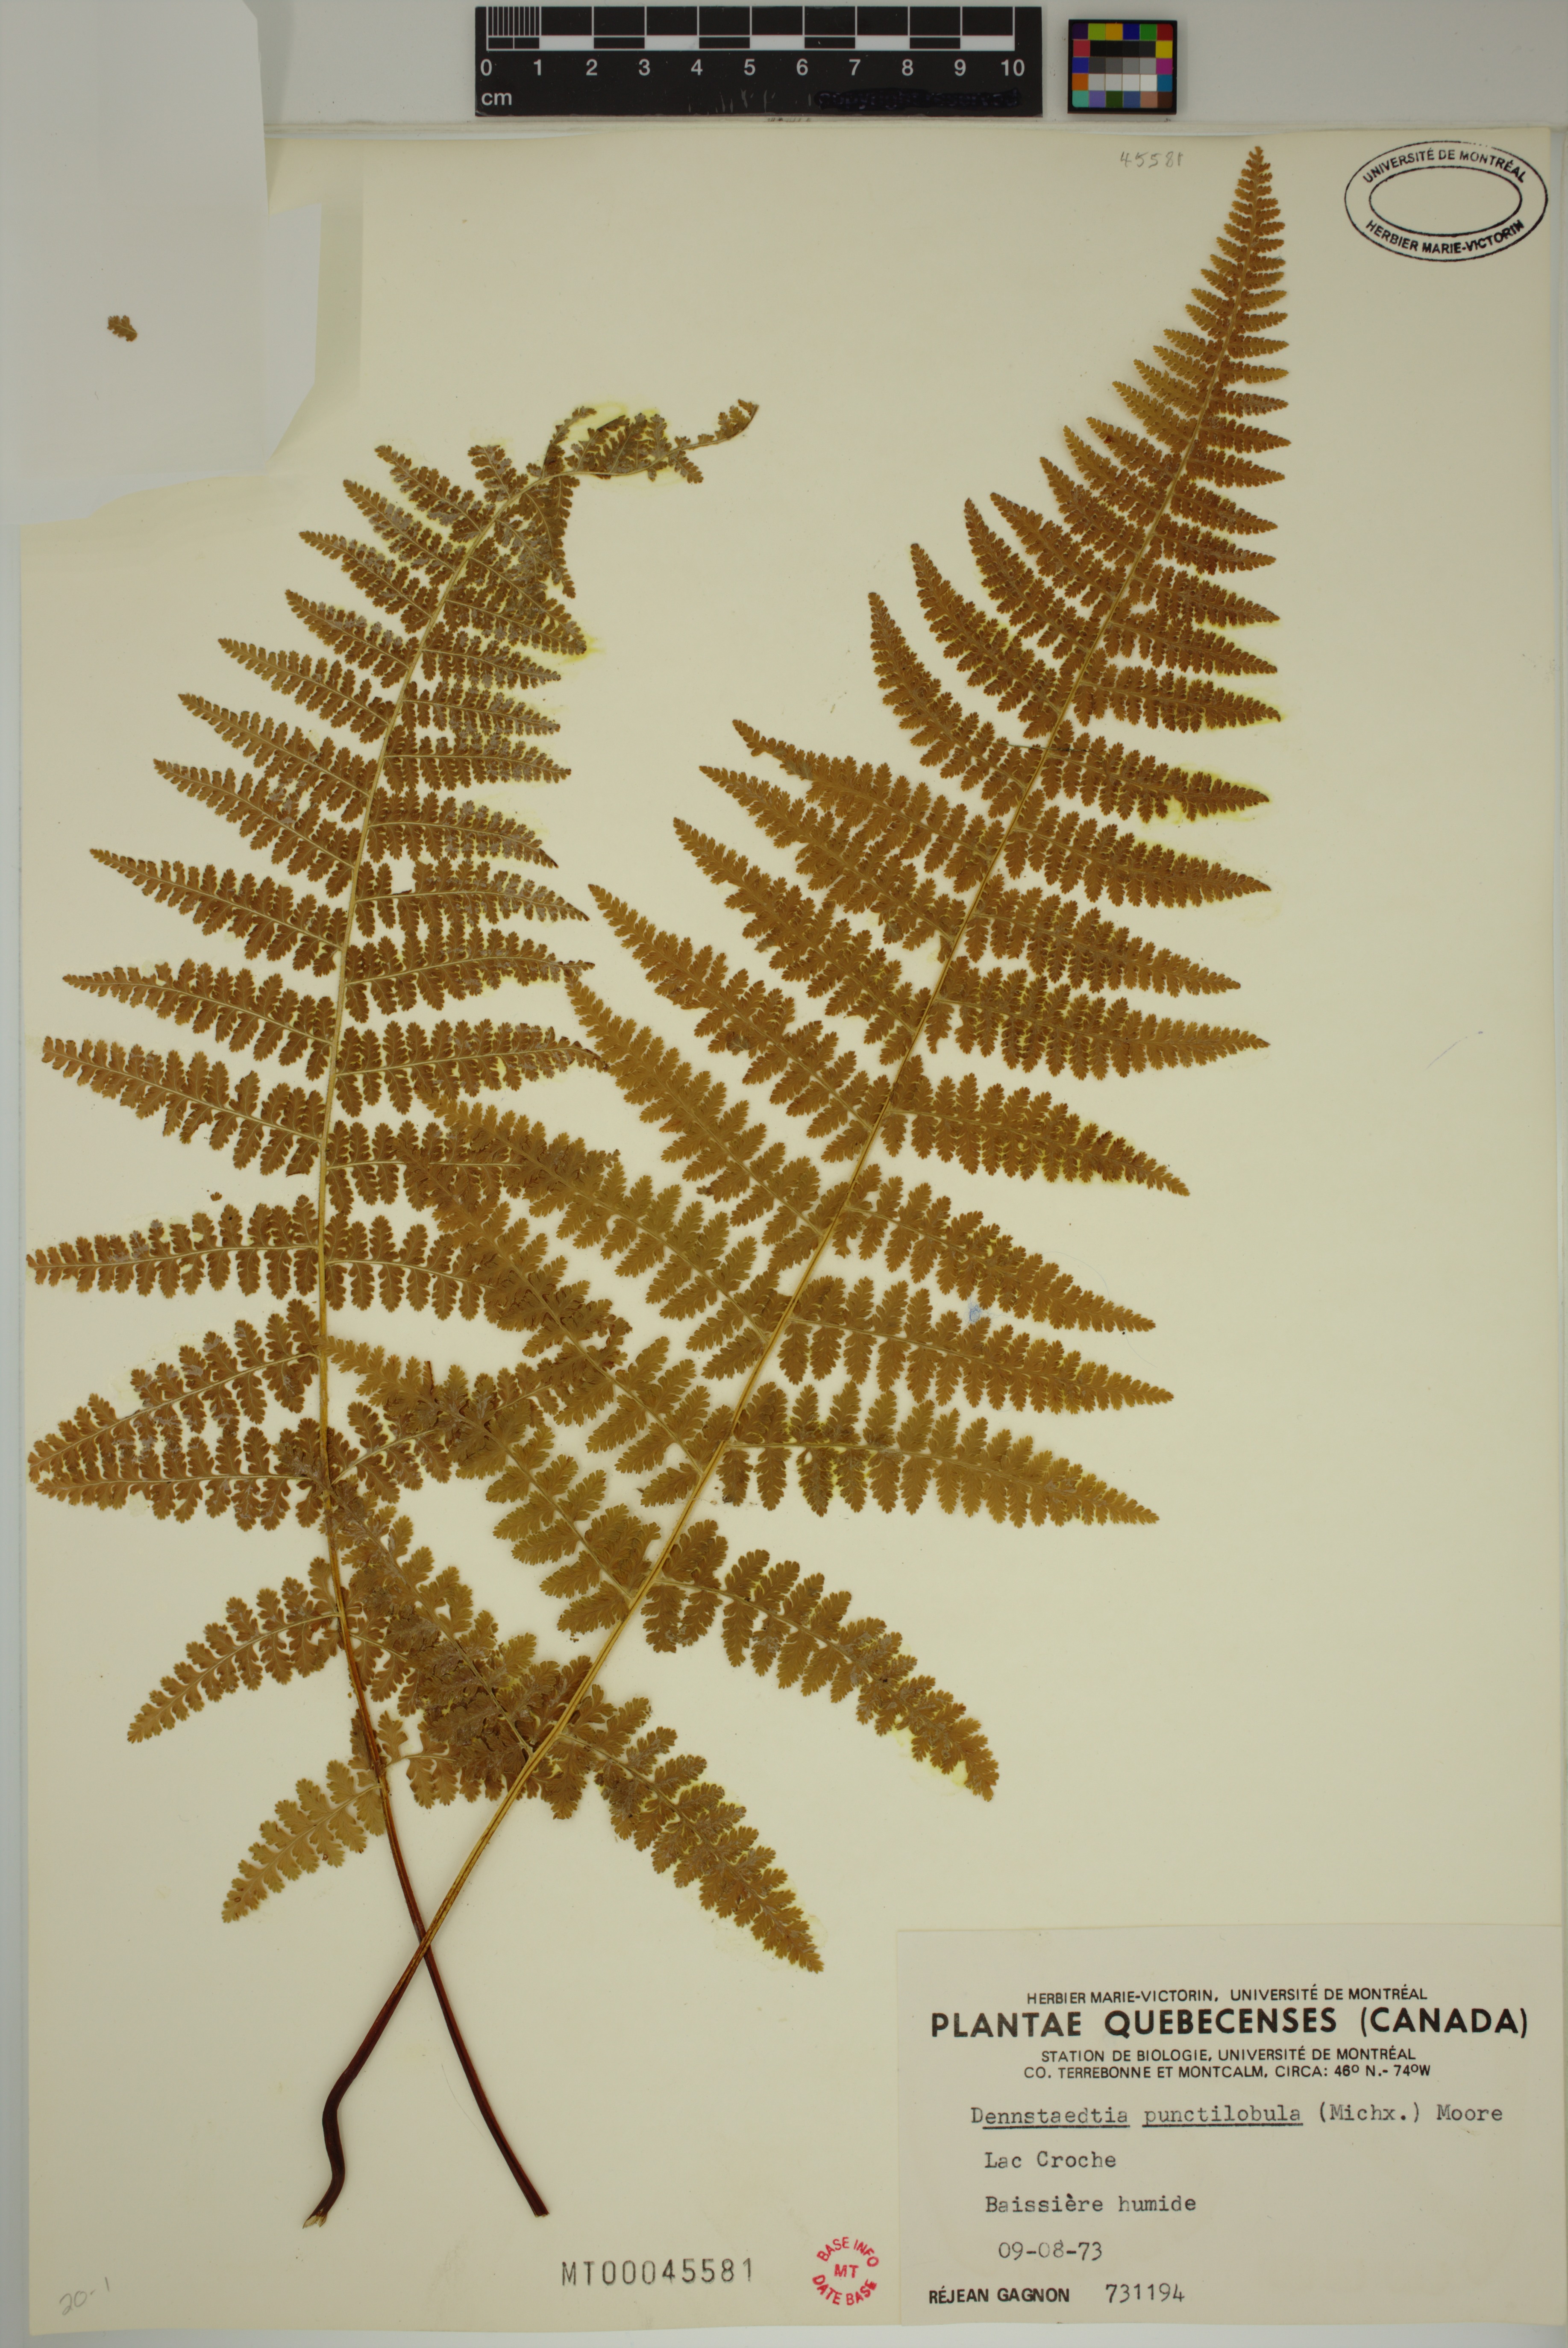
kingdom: Plantae
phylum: Tracheophyta
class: Polypodiopsida
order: Polypodiales
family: Dennstaedtiaceae
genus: Sitobolium
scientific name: Sitobolium punctilobum
